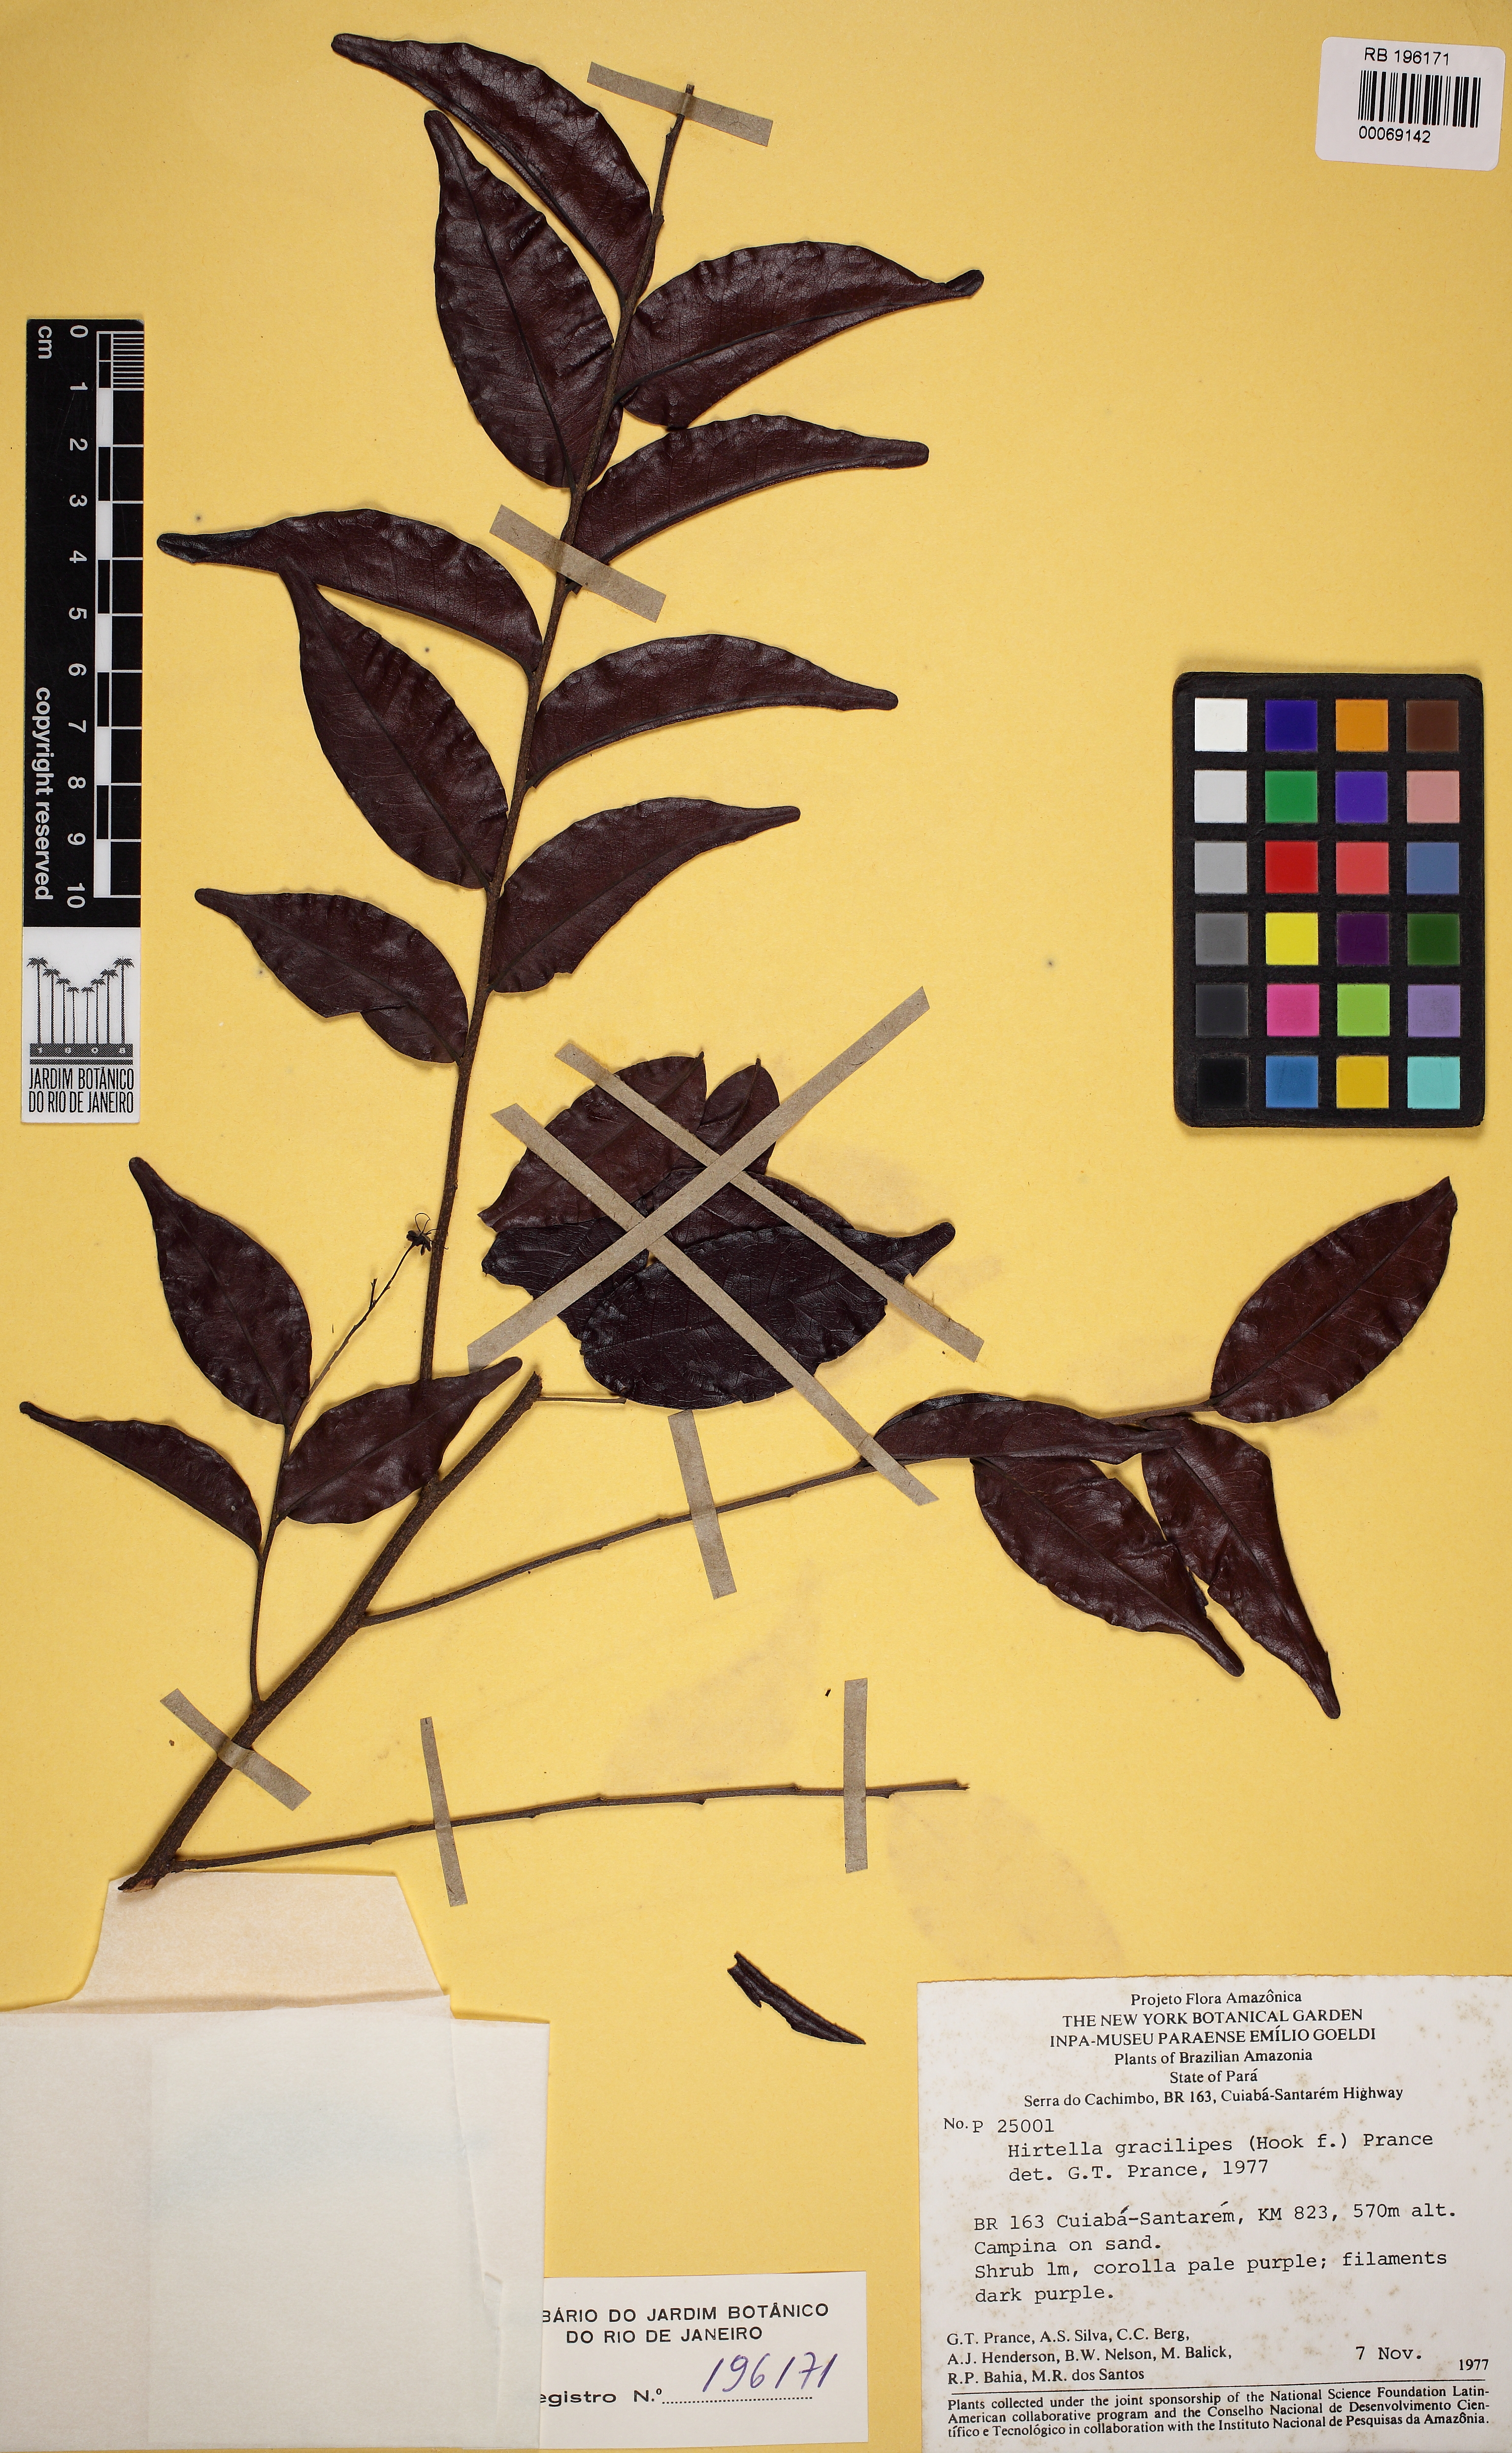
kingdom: Plantae
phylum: Tracheophyta
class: Magnoliopsida
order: Malpighiales
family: Chrysobalanaceae
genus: Hirtella
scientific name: Hirtella gracilipes
